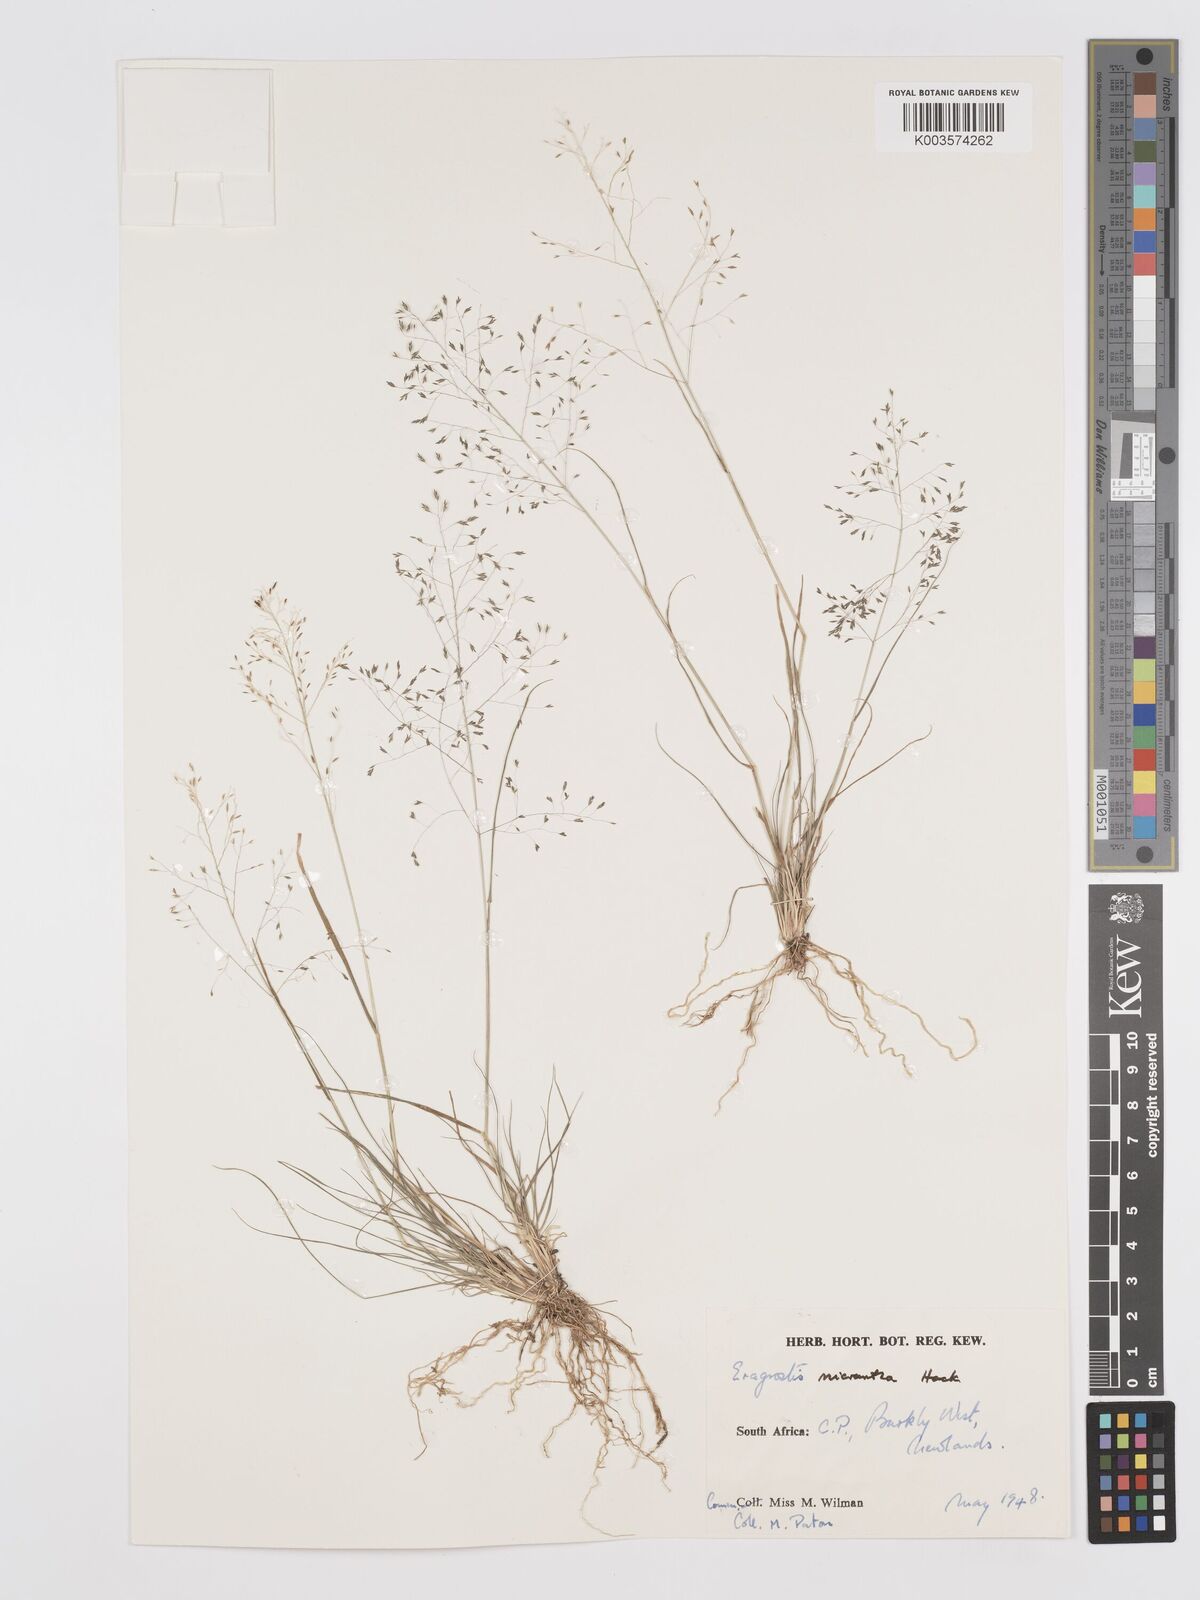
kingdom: Plantae
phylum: Tracheophyta
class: Liliopsida
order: Poales
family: Poaceae
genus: Eragrostis
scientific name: Eragrostis micrantha
